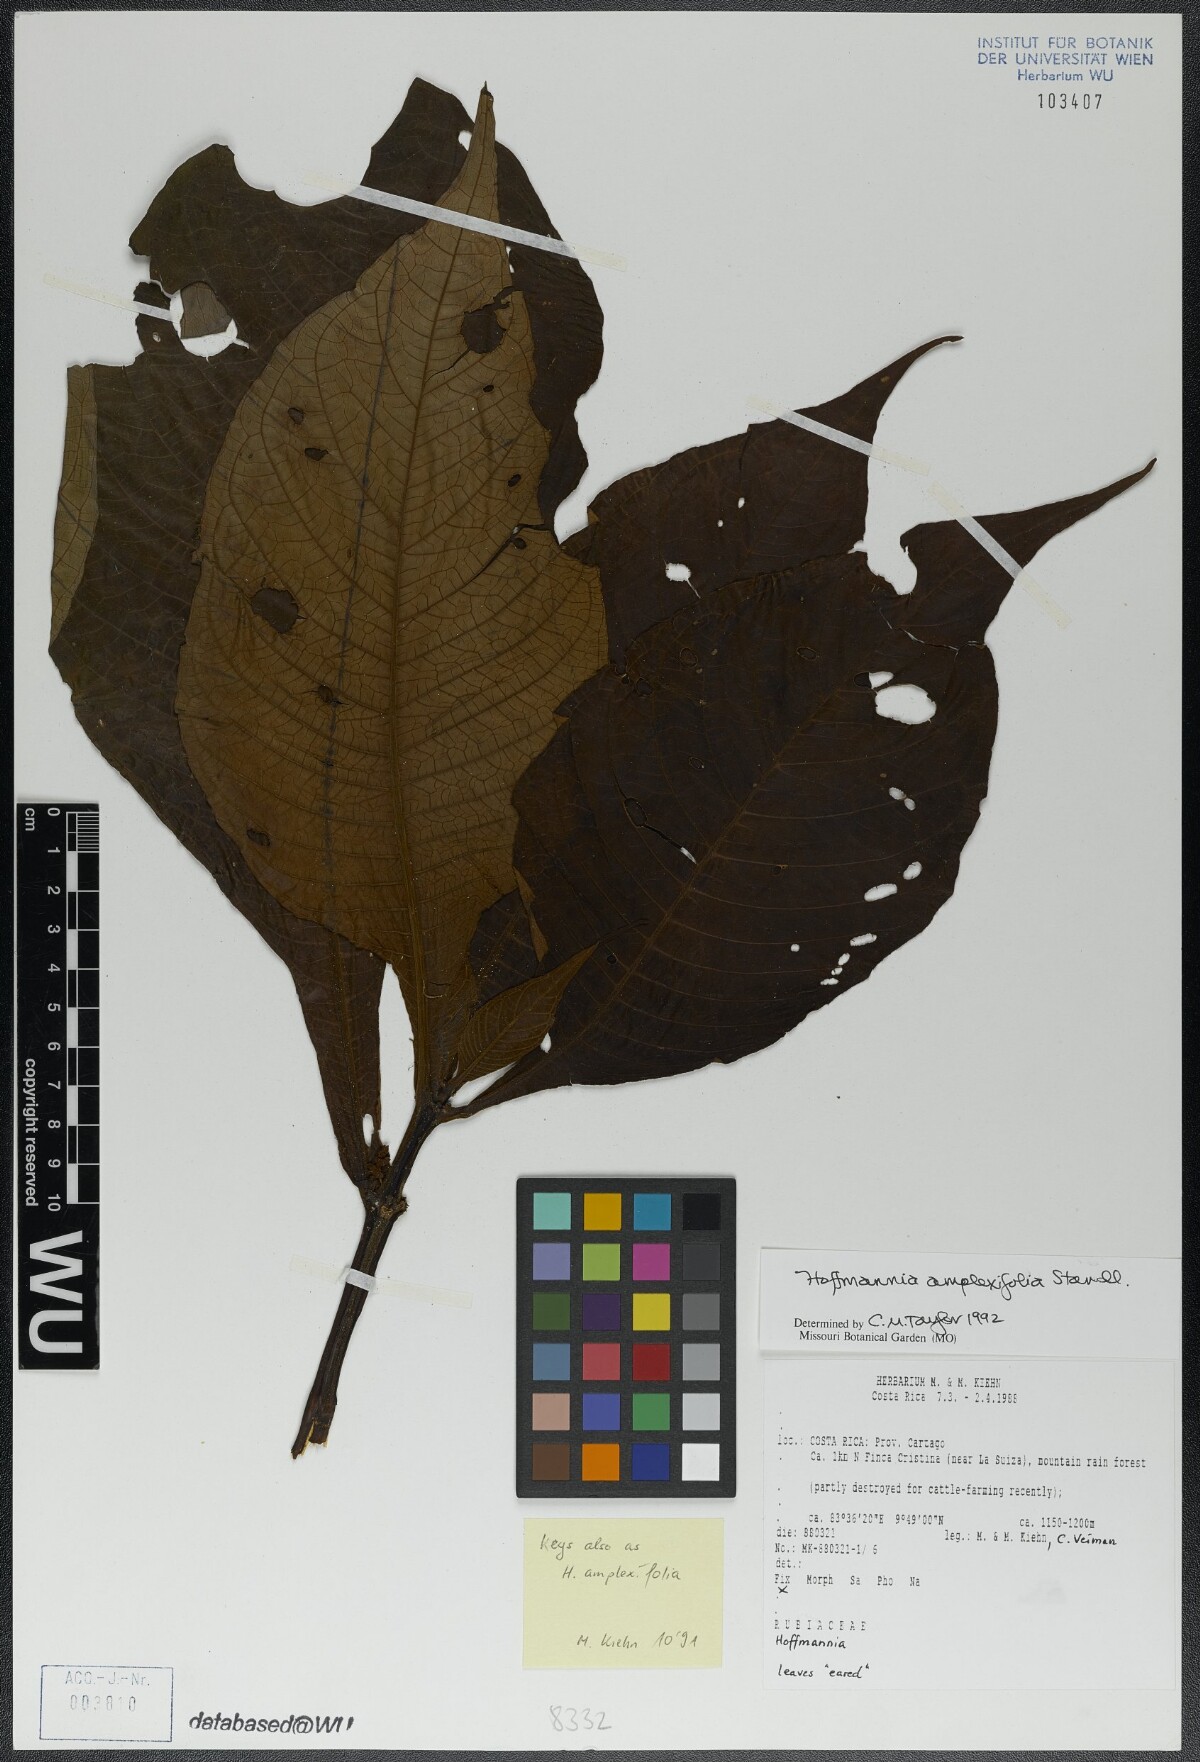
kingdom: Plantae
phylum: Tracheophyta
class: Magnoliopsida
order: Gentianales
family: Rubiaceae
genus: Hoffmannia
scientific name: Hoffmannia amplexifolia
